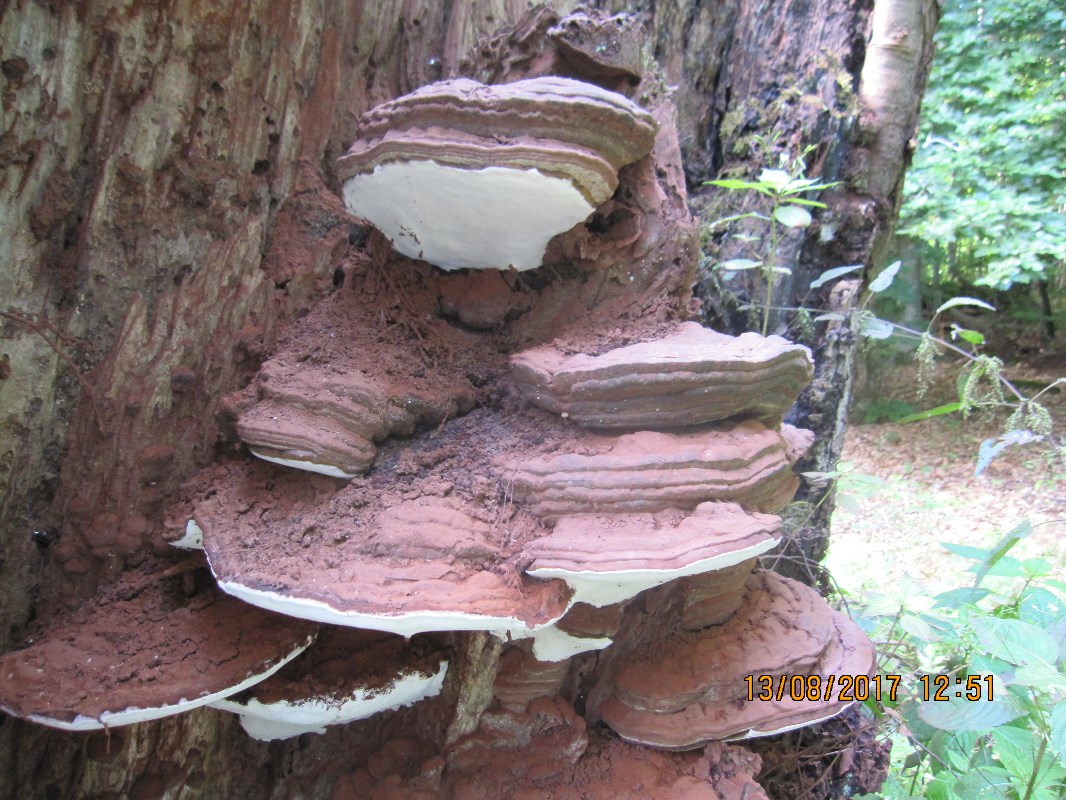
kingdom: Fungi
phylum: Basidiomycota
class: Agaricomycetes
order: Polyporales
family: Polyporaceae
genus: Ganoderma
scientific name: Ganoderma pfeifferi
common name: kobberrød lakporesvamp
